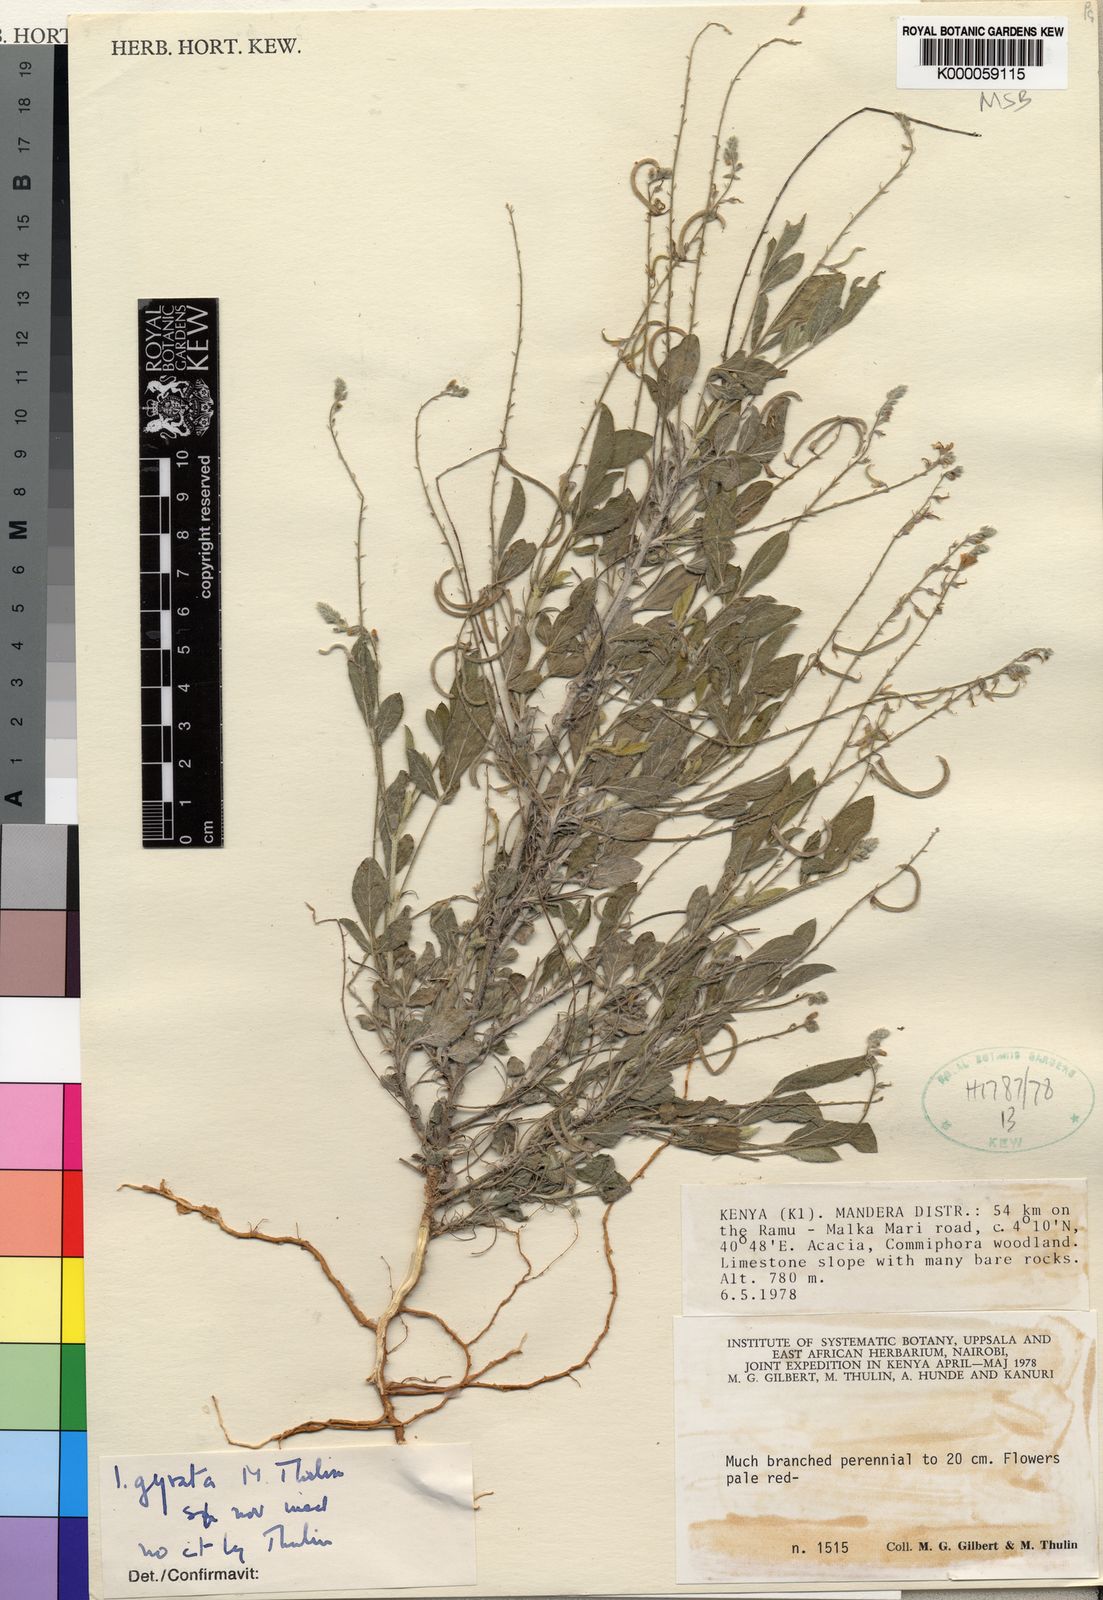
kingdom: Plantae
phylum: Tracheophyta
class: Magnoliopsida
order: Fabales
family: Fabaceae
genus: Microcharis
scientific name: Microcharis gyrata
